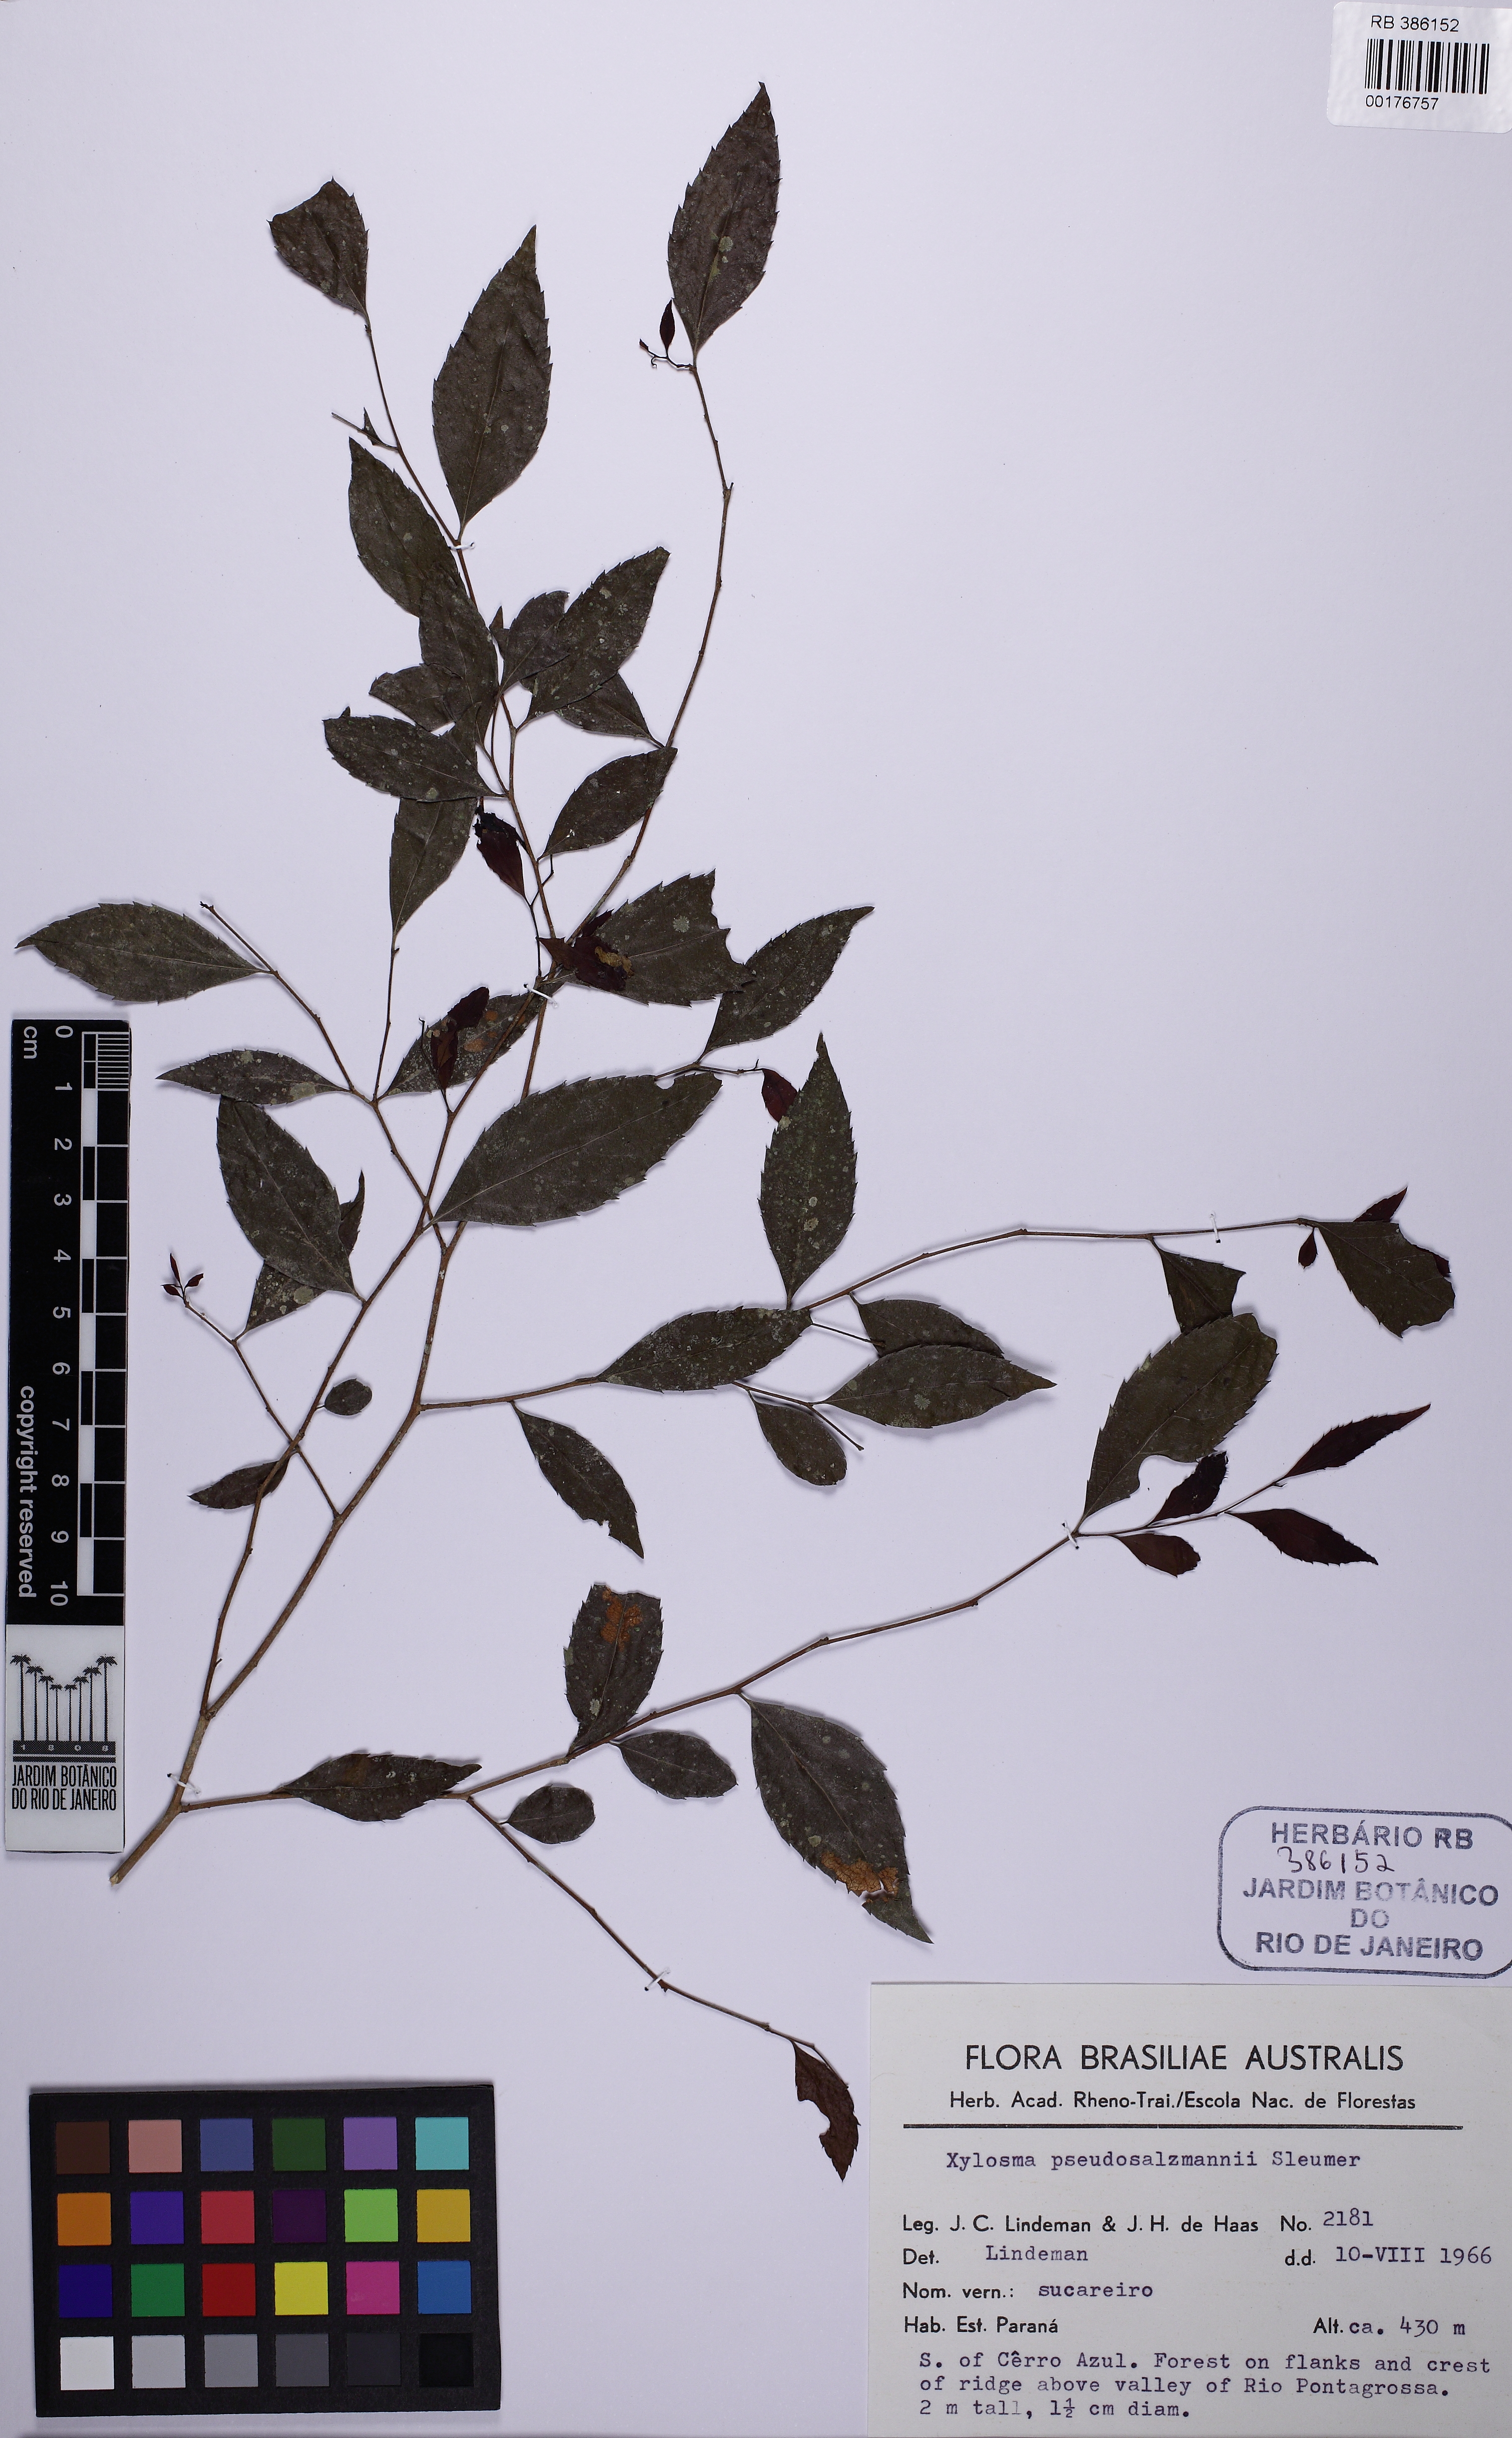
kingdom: Plantae
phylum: Tracheophyta
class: Magnoliopsida
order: Malpighiales
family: Salicaceae
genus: Xylosma
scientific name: Xylosma pseudosalzmannii
